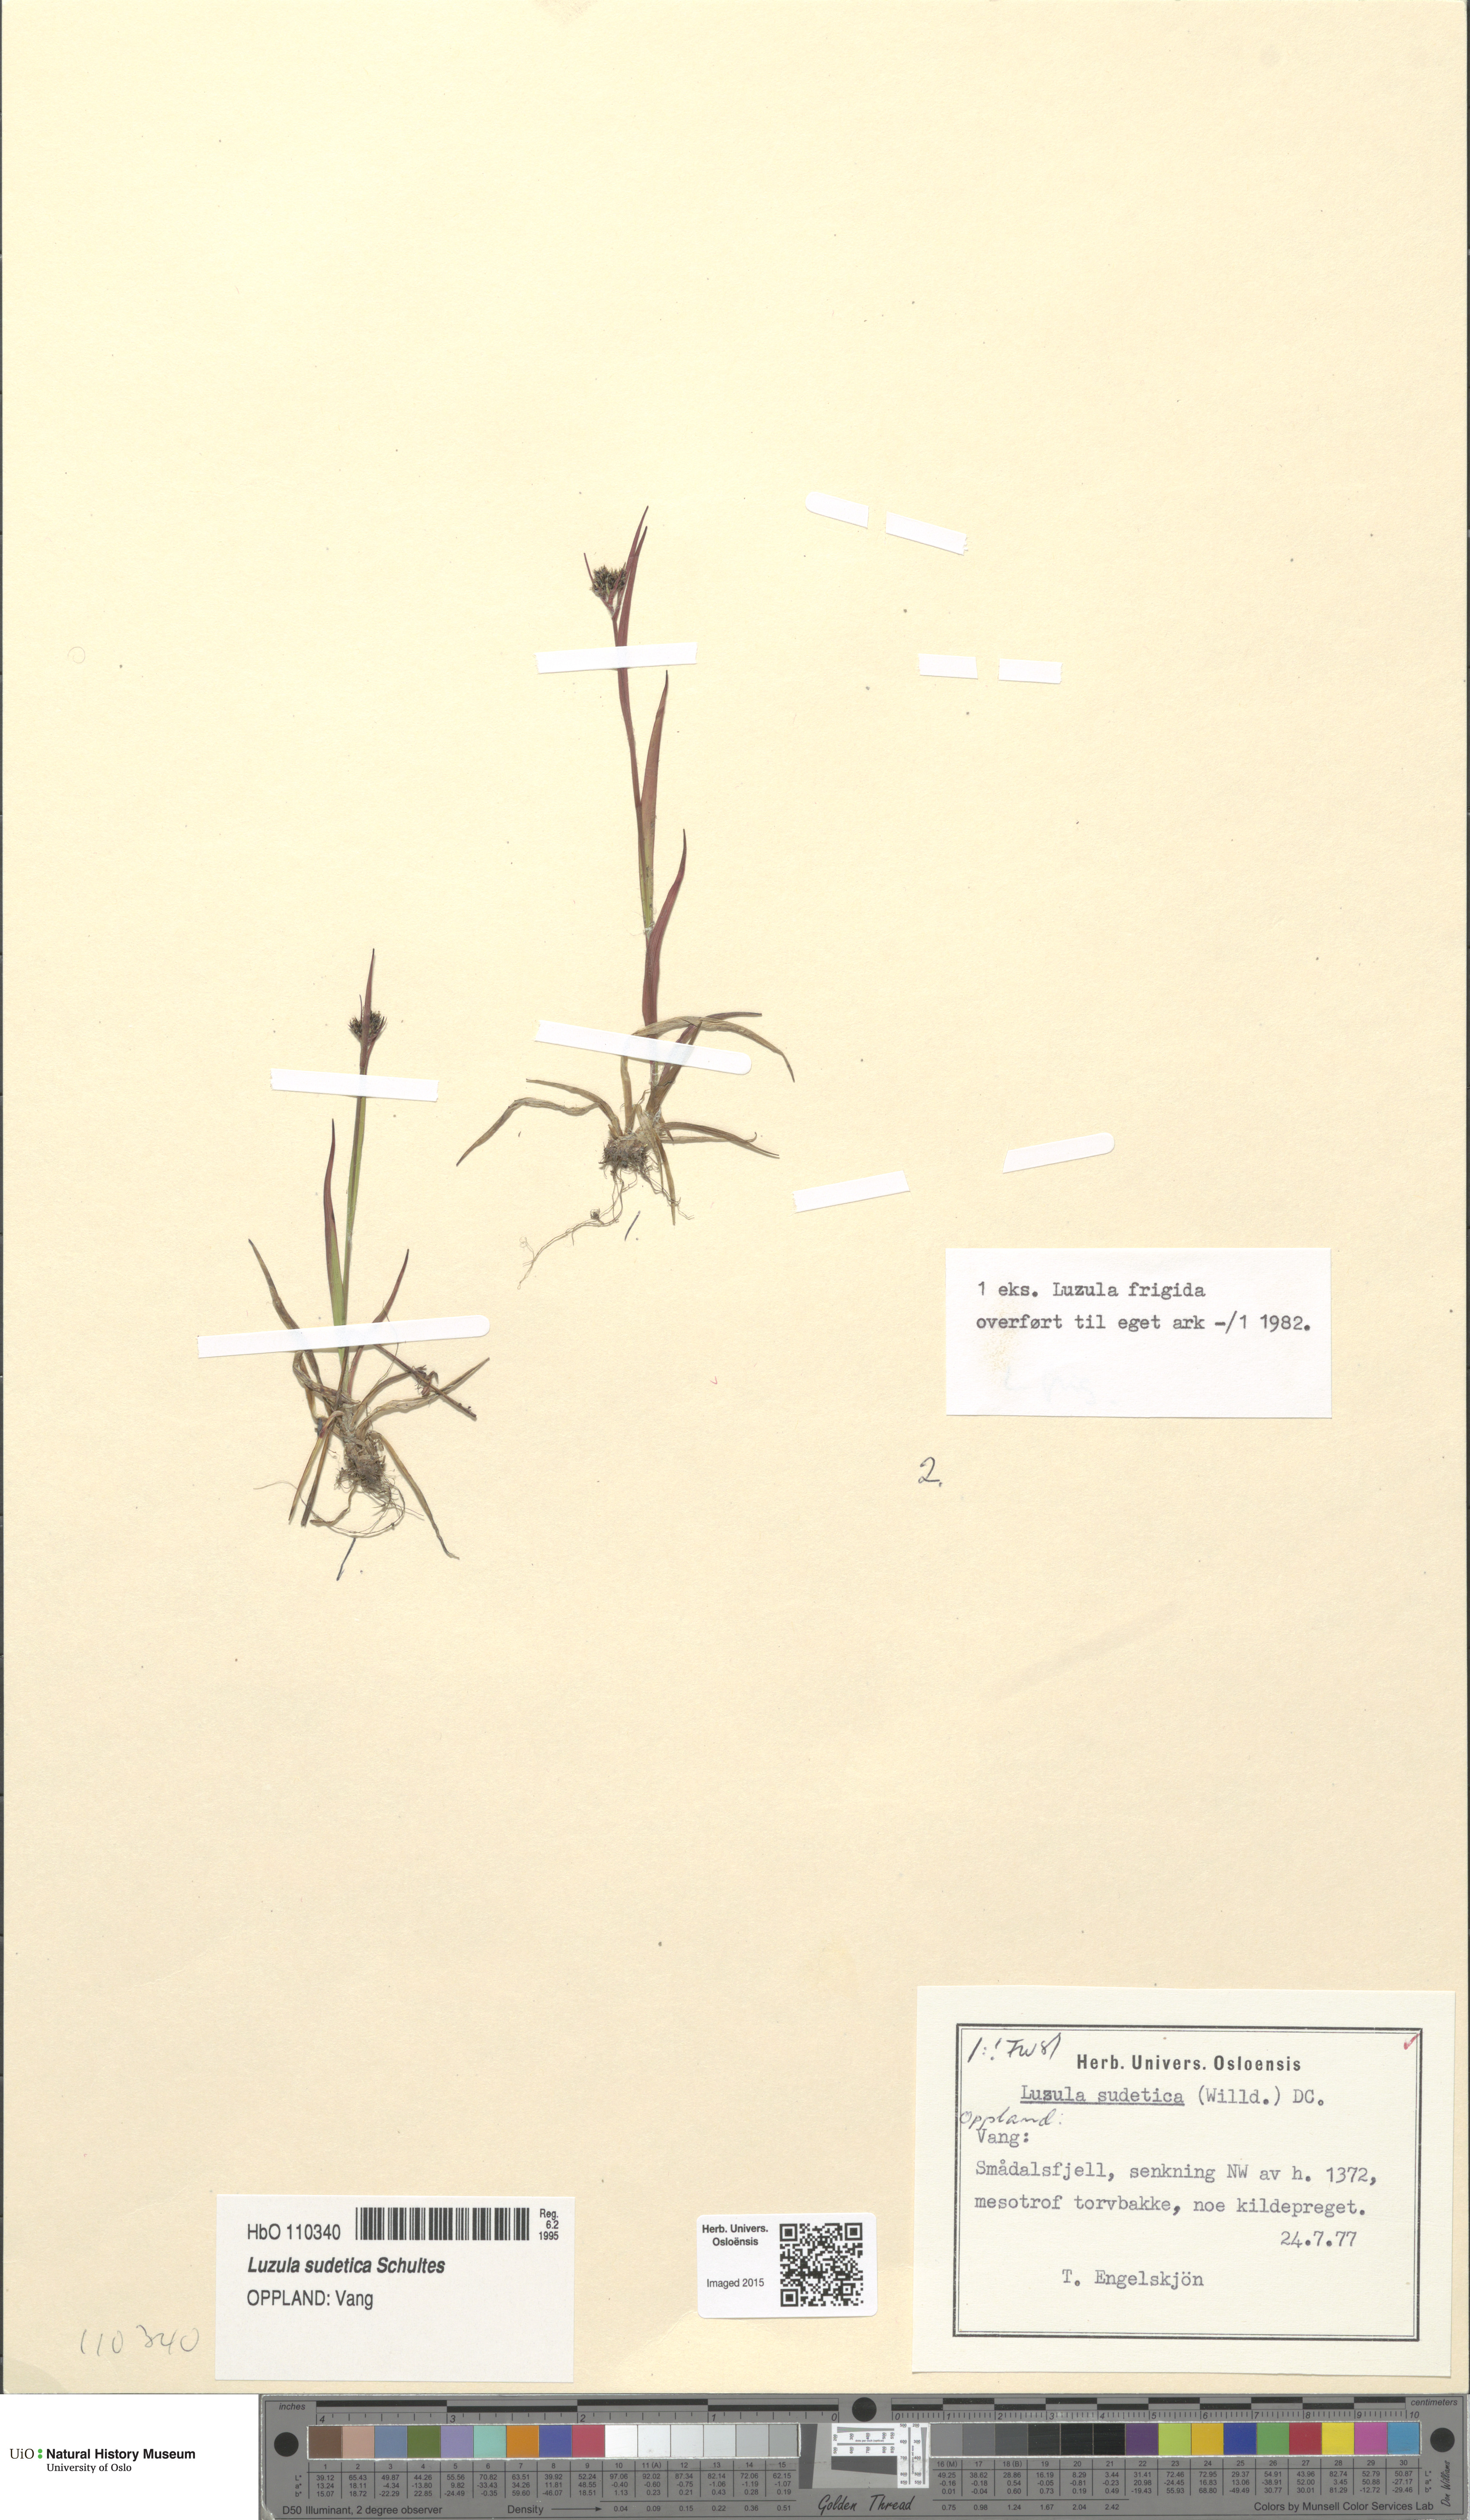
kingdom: Plantae
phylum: Tracheophyta
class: Liliopsida
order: Poales
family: Juncaceae
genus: Luzula
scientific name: Luzula sudetica
